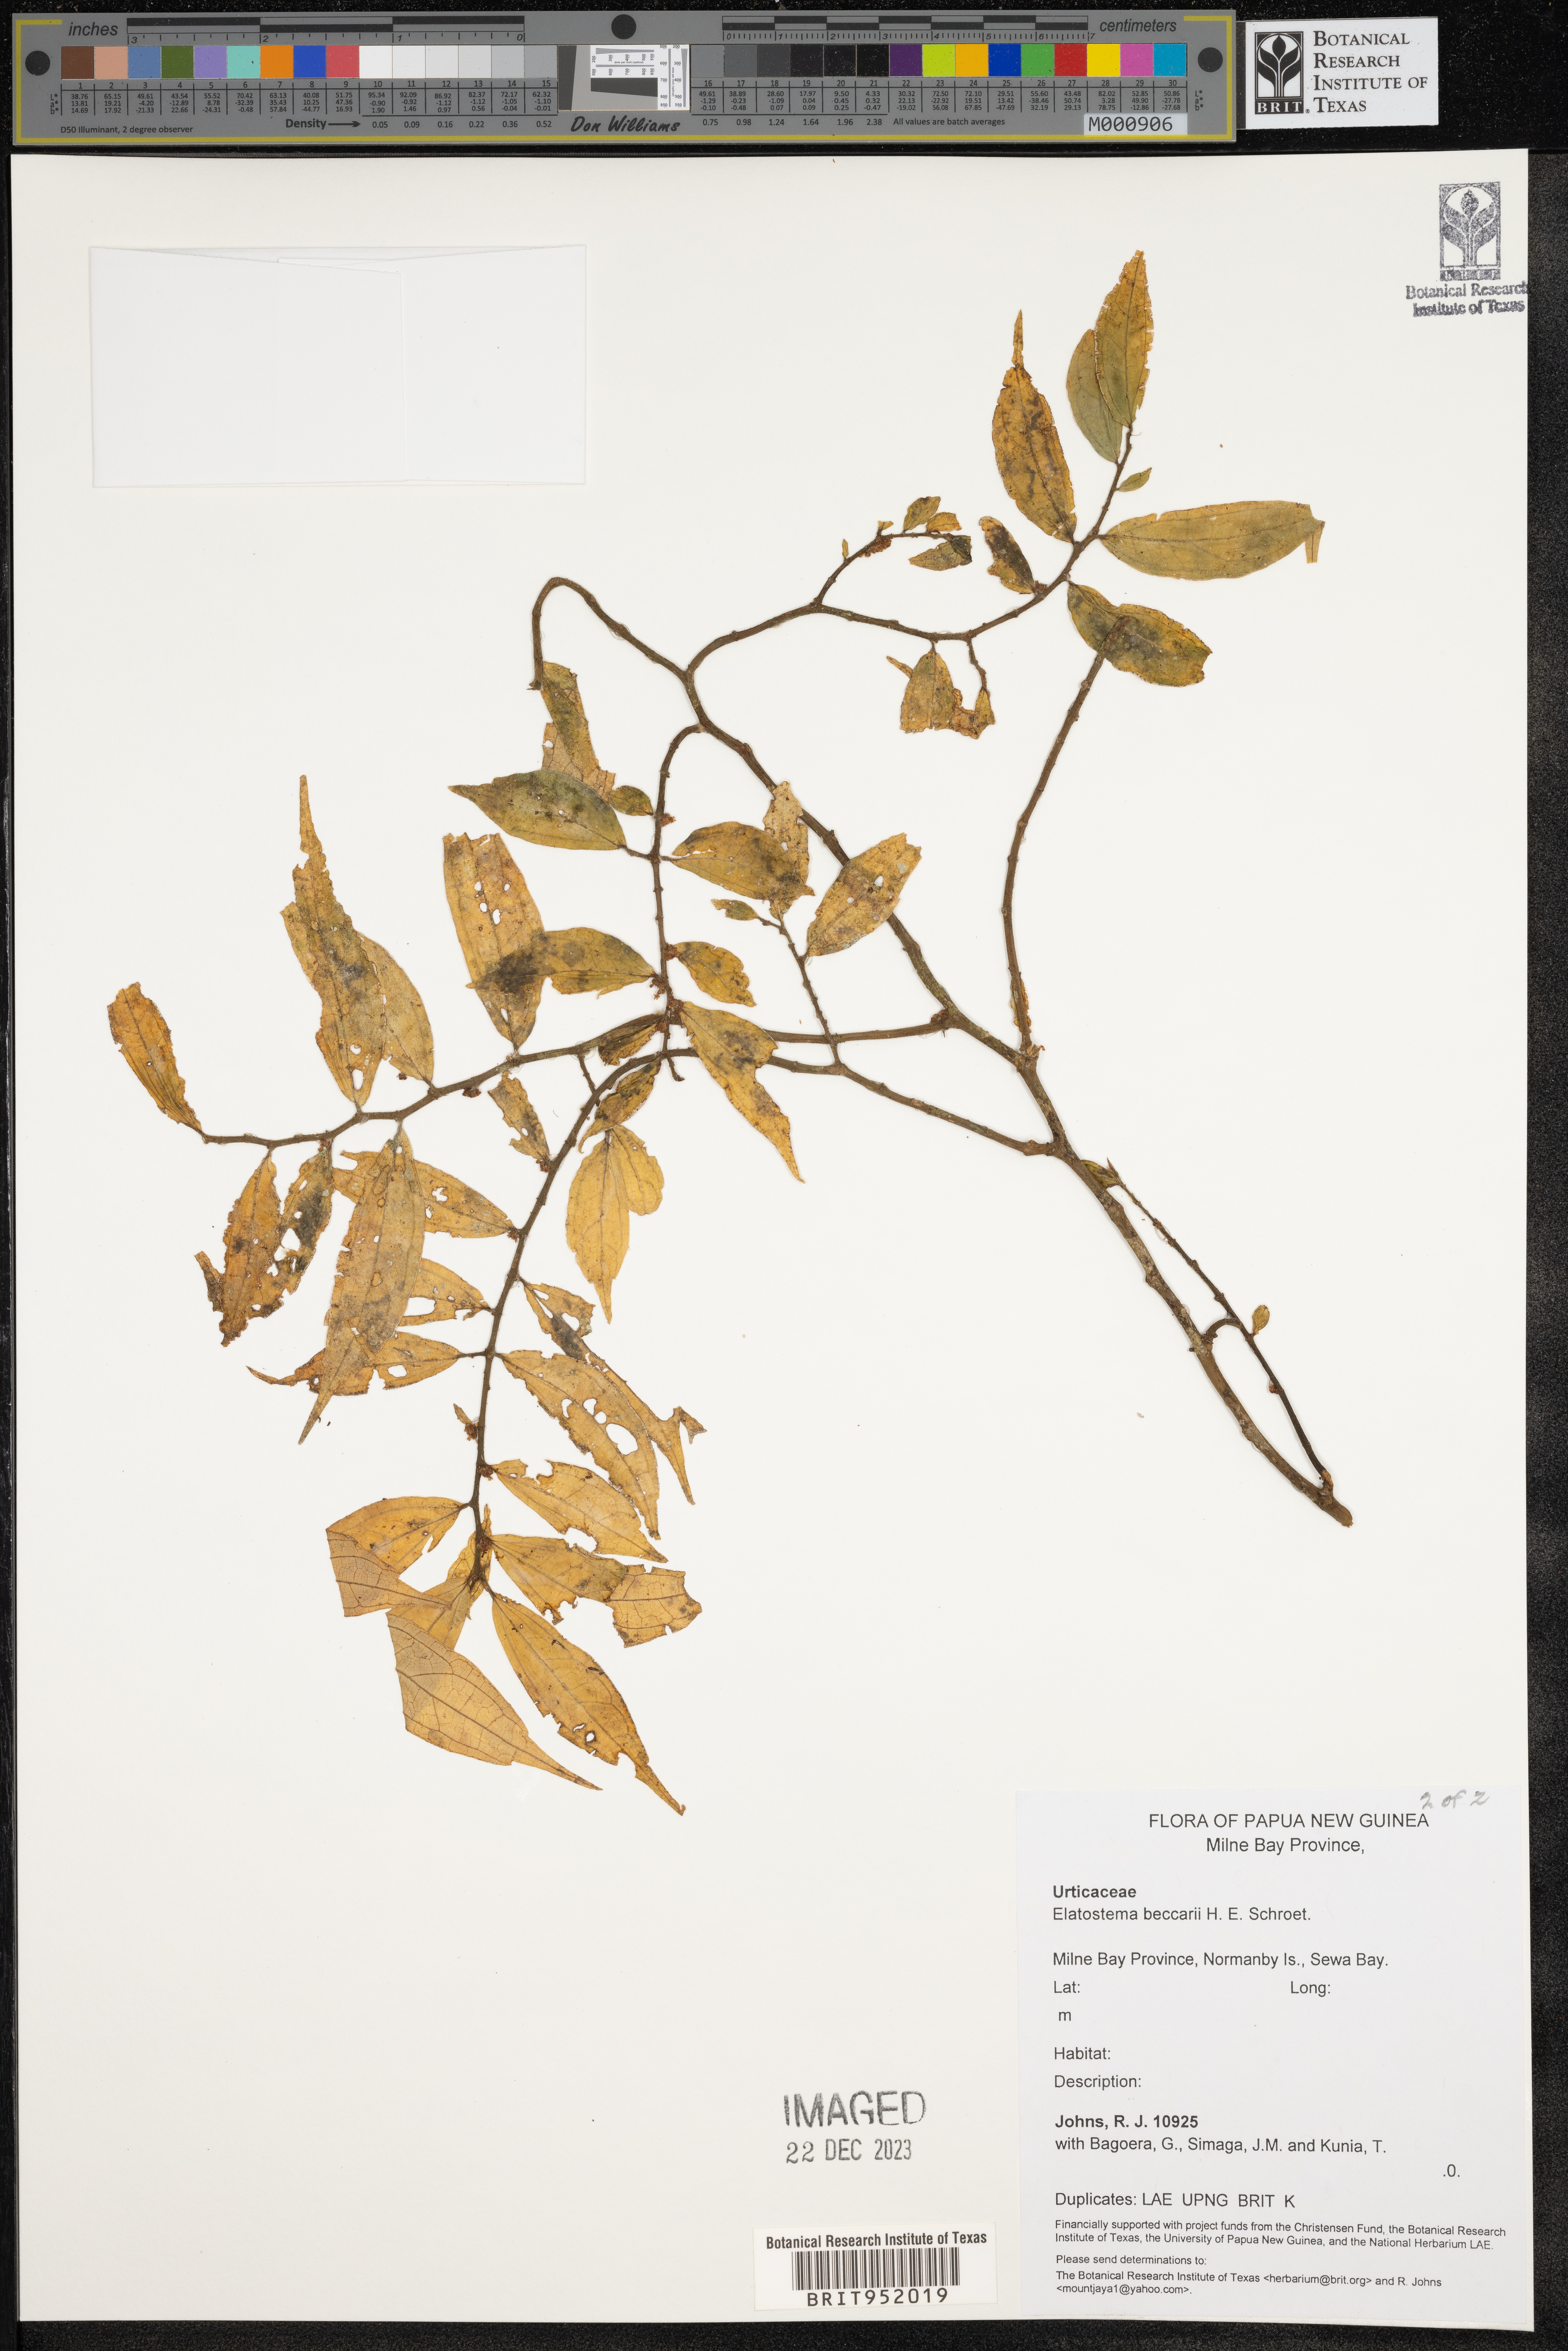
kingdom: Plantae
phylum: Tracheophyta
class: Magnoliopsida
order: Rosales
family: Urticaceae
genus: Elatostema
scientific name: Elatostema
